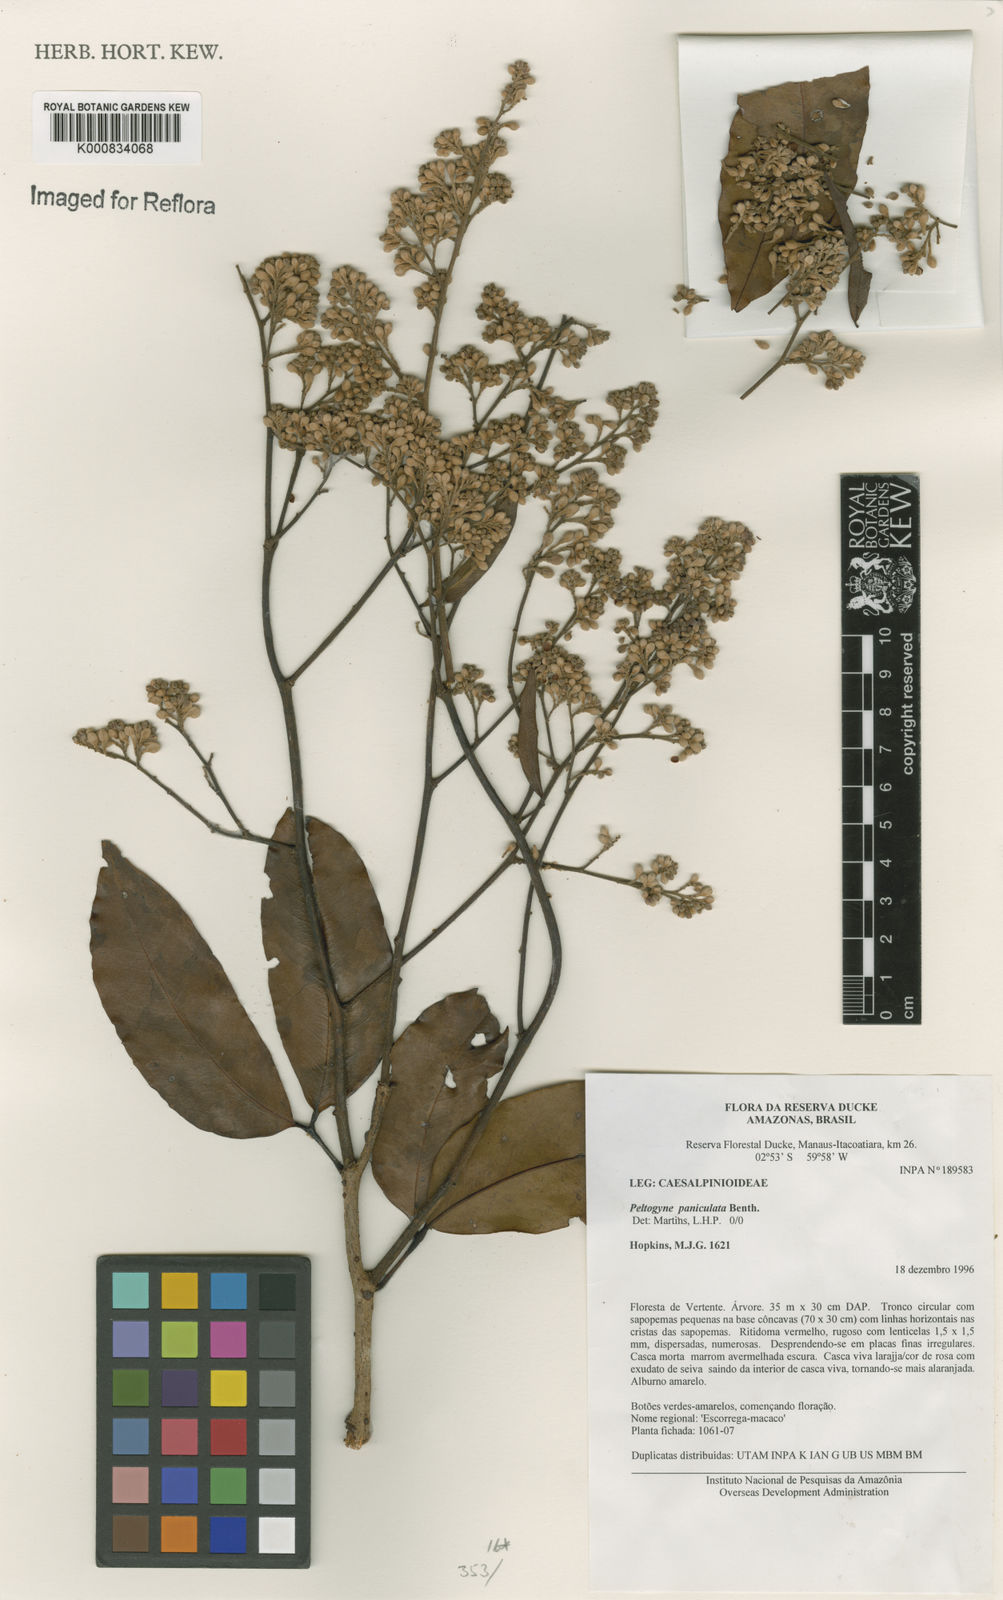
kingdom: Plantae
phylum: Tracheophyta
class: Magnoliopsida
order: Fabales
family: Fabaceae
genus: Peltogyne
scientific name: Peltogyne paniculata
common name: Purpleheart
